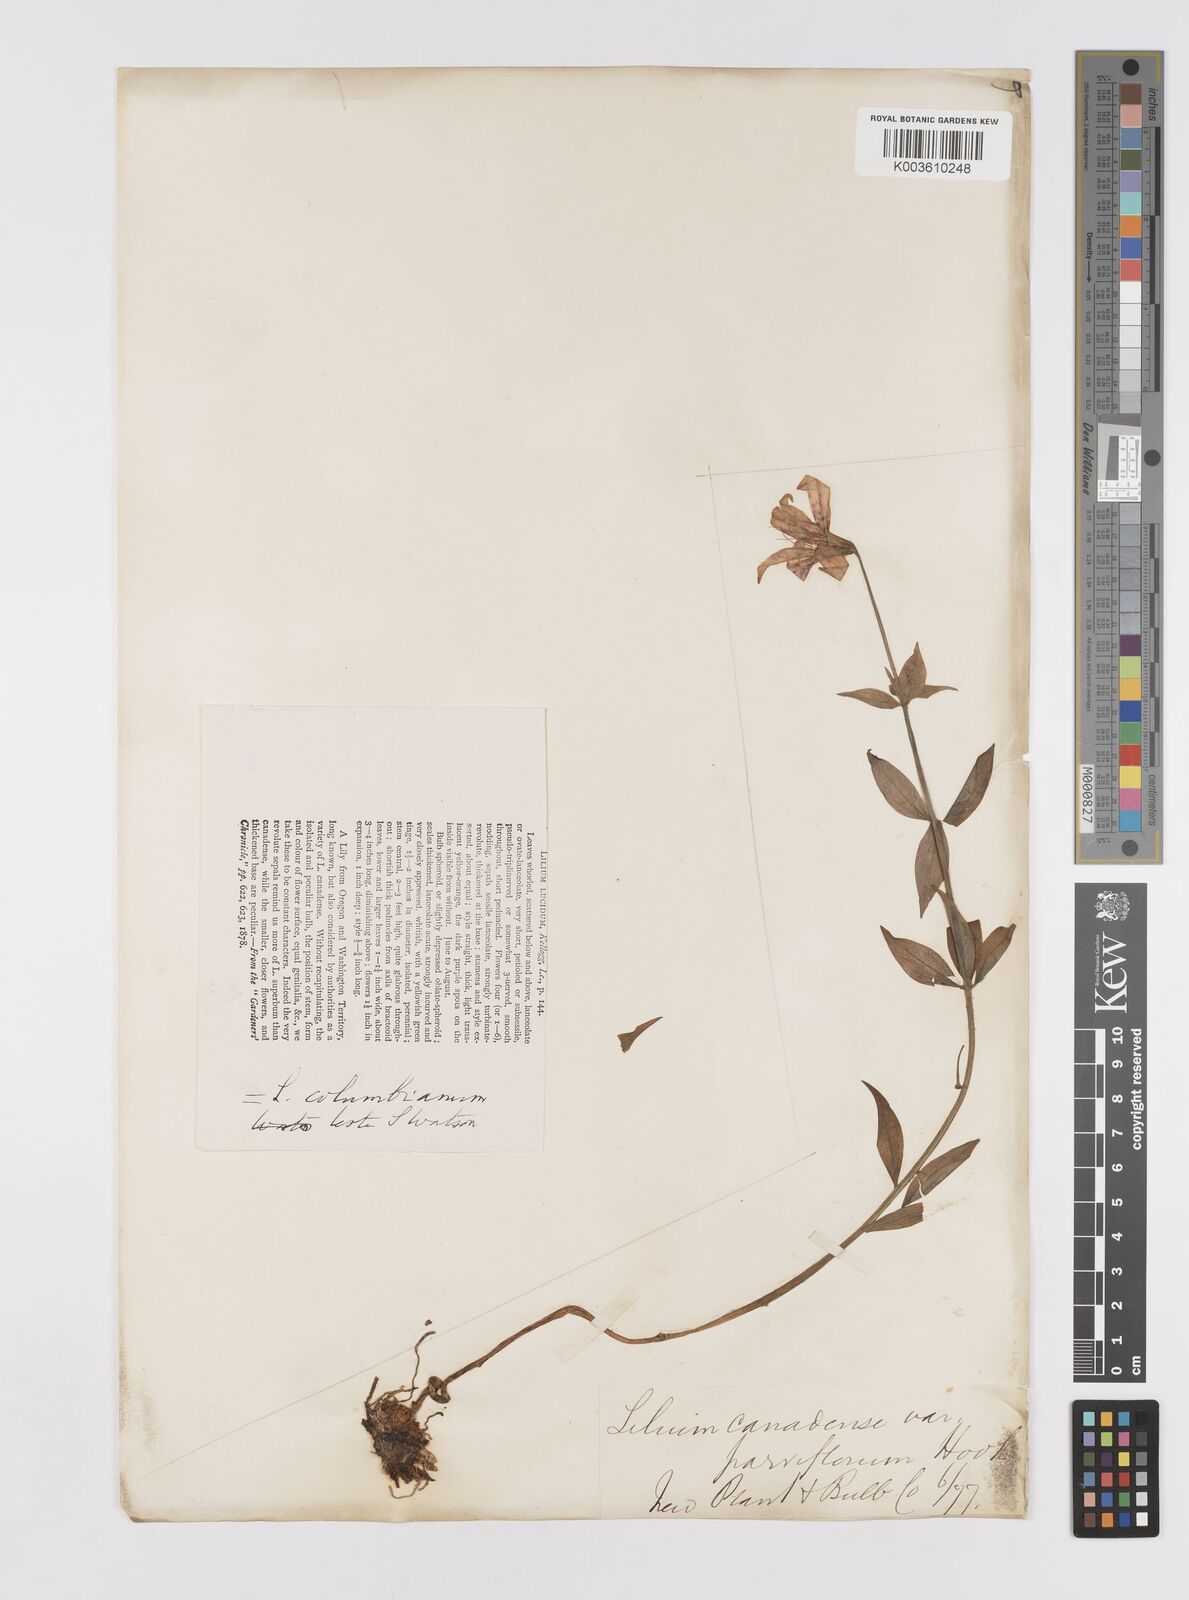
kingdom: Plantae
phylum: Tracheophyta
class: Liliopsida
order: Liliales
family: Liliaceae
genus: Lilium
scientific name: Lilium columbianum
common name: Columbia lily
